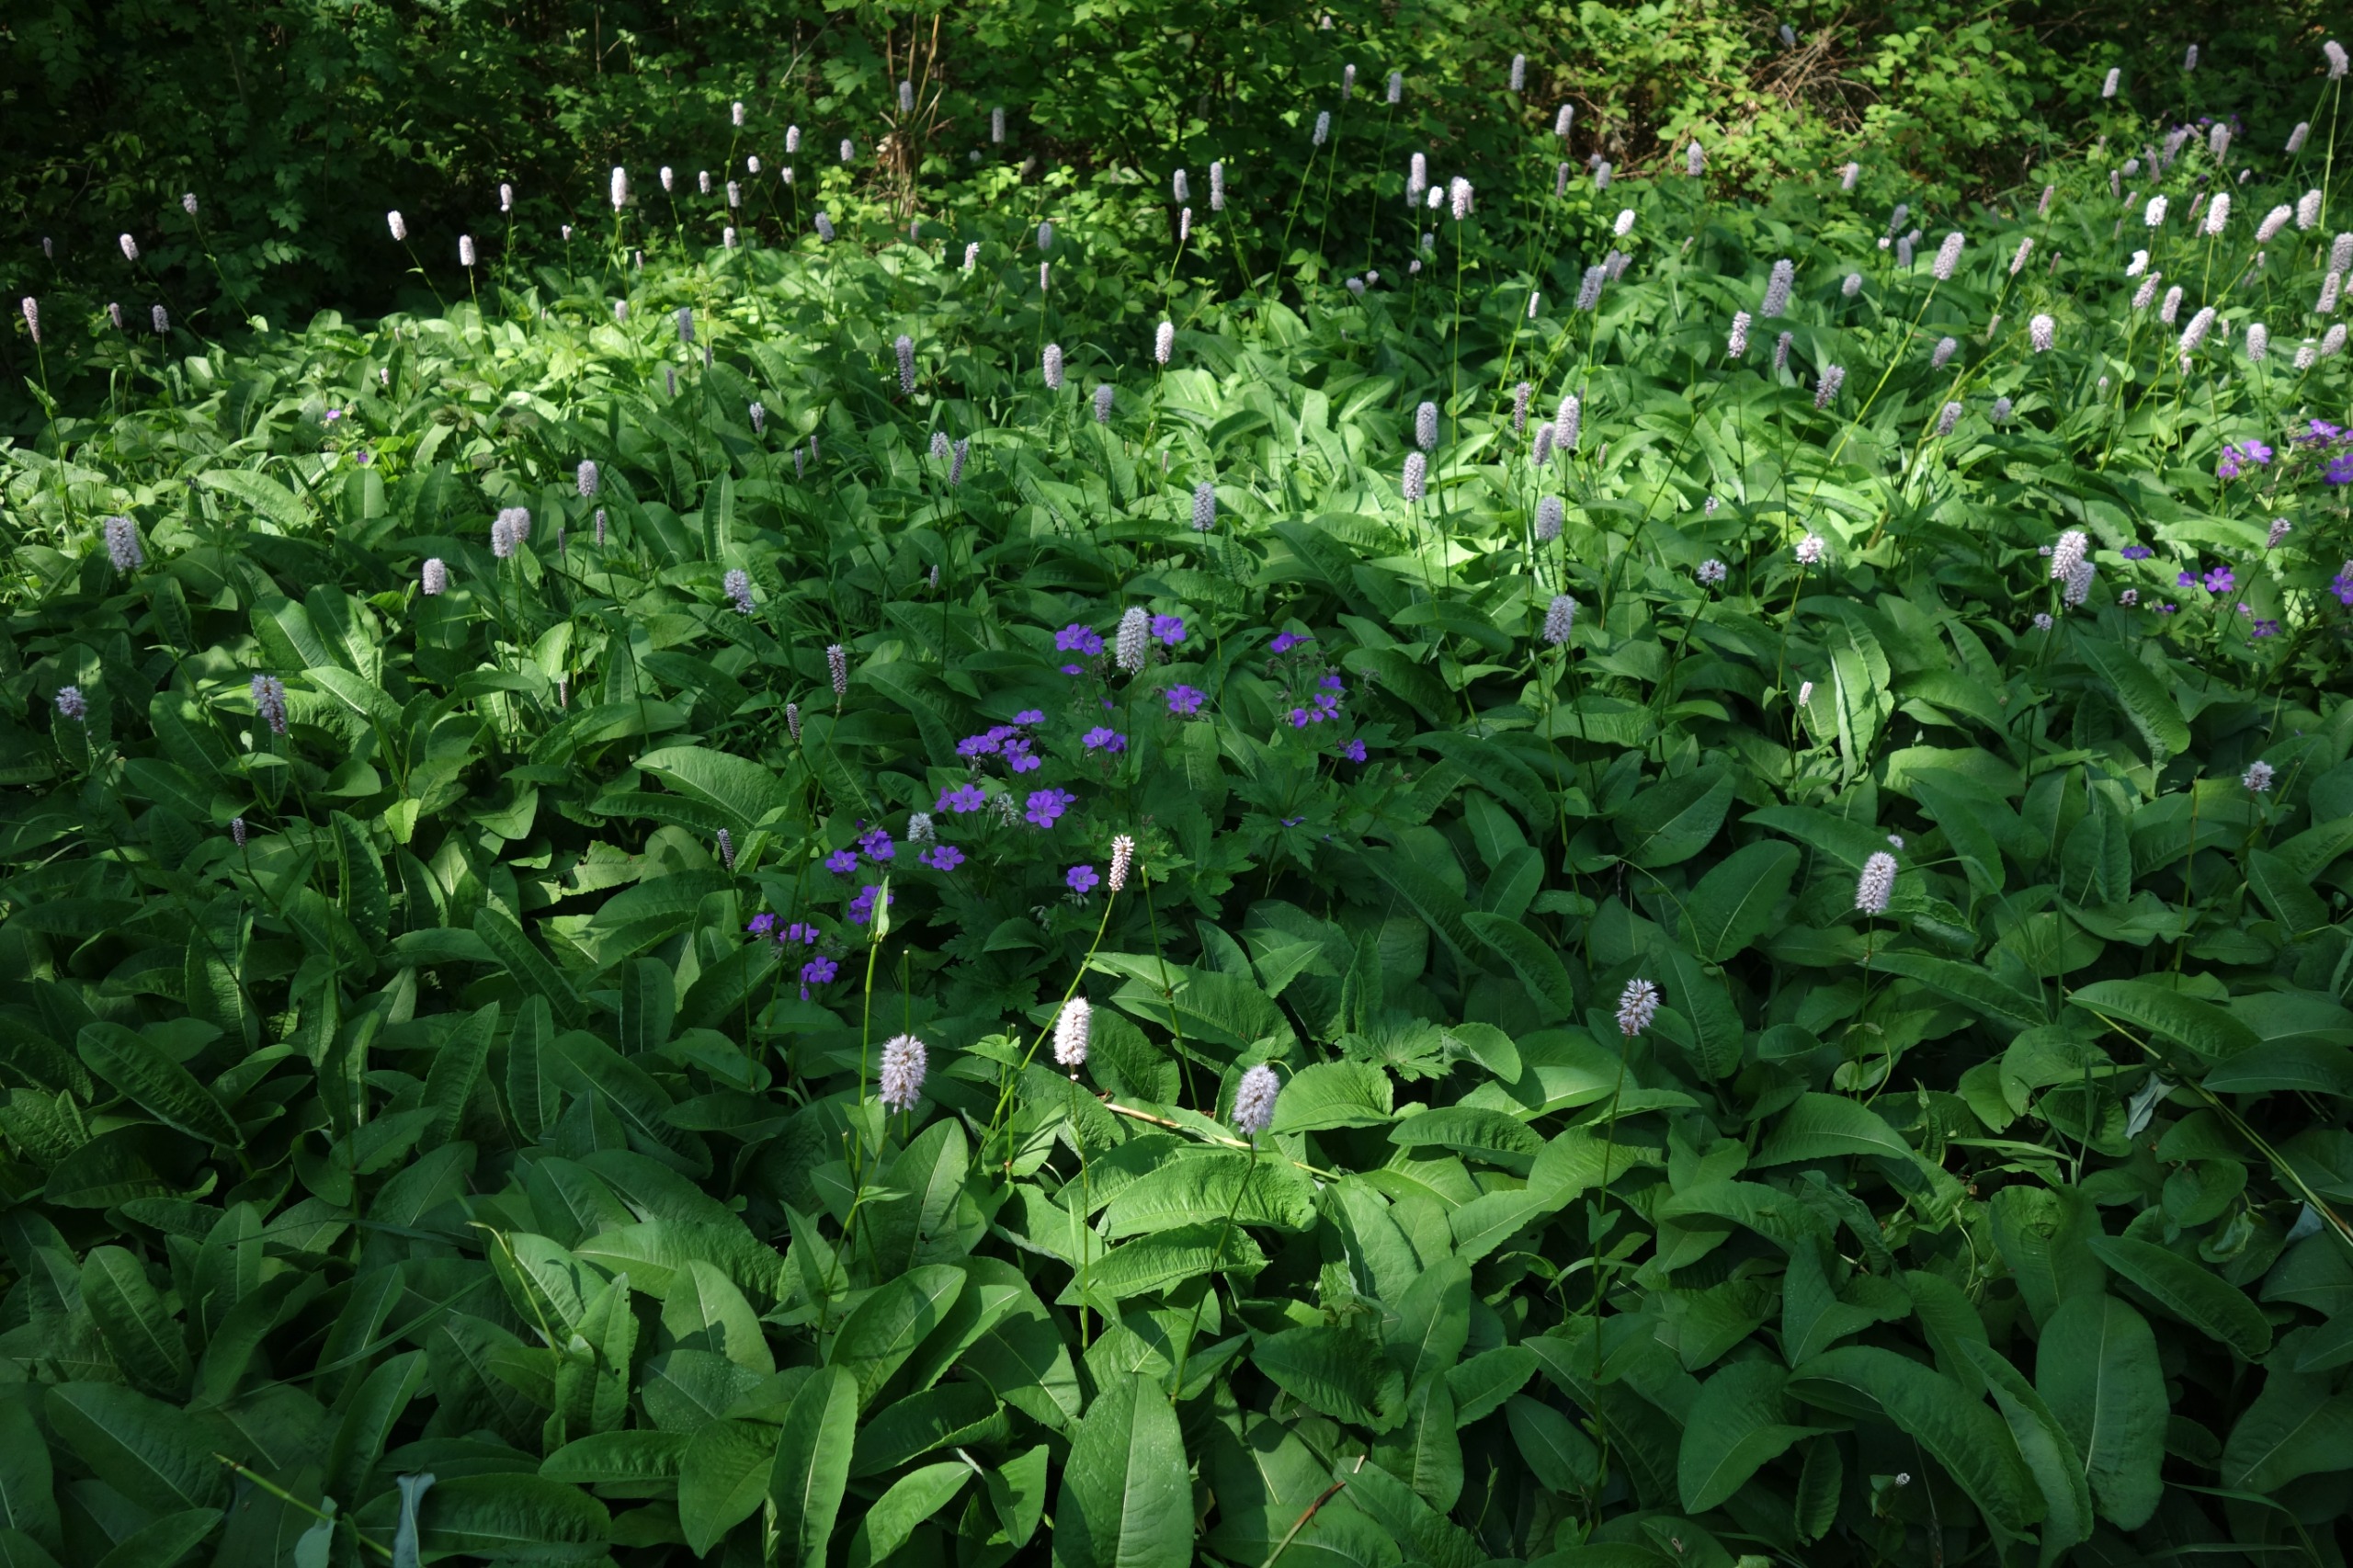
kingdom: Plantae
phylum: Tracheophyta
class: Magnoliopsida
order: Caryophyllales
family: Polygonaceae
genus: Bistorta
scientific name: Bistorta officinalis
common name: Slangeurt
